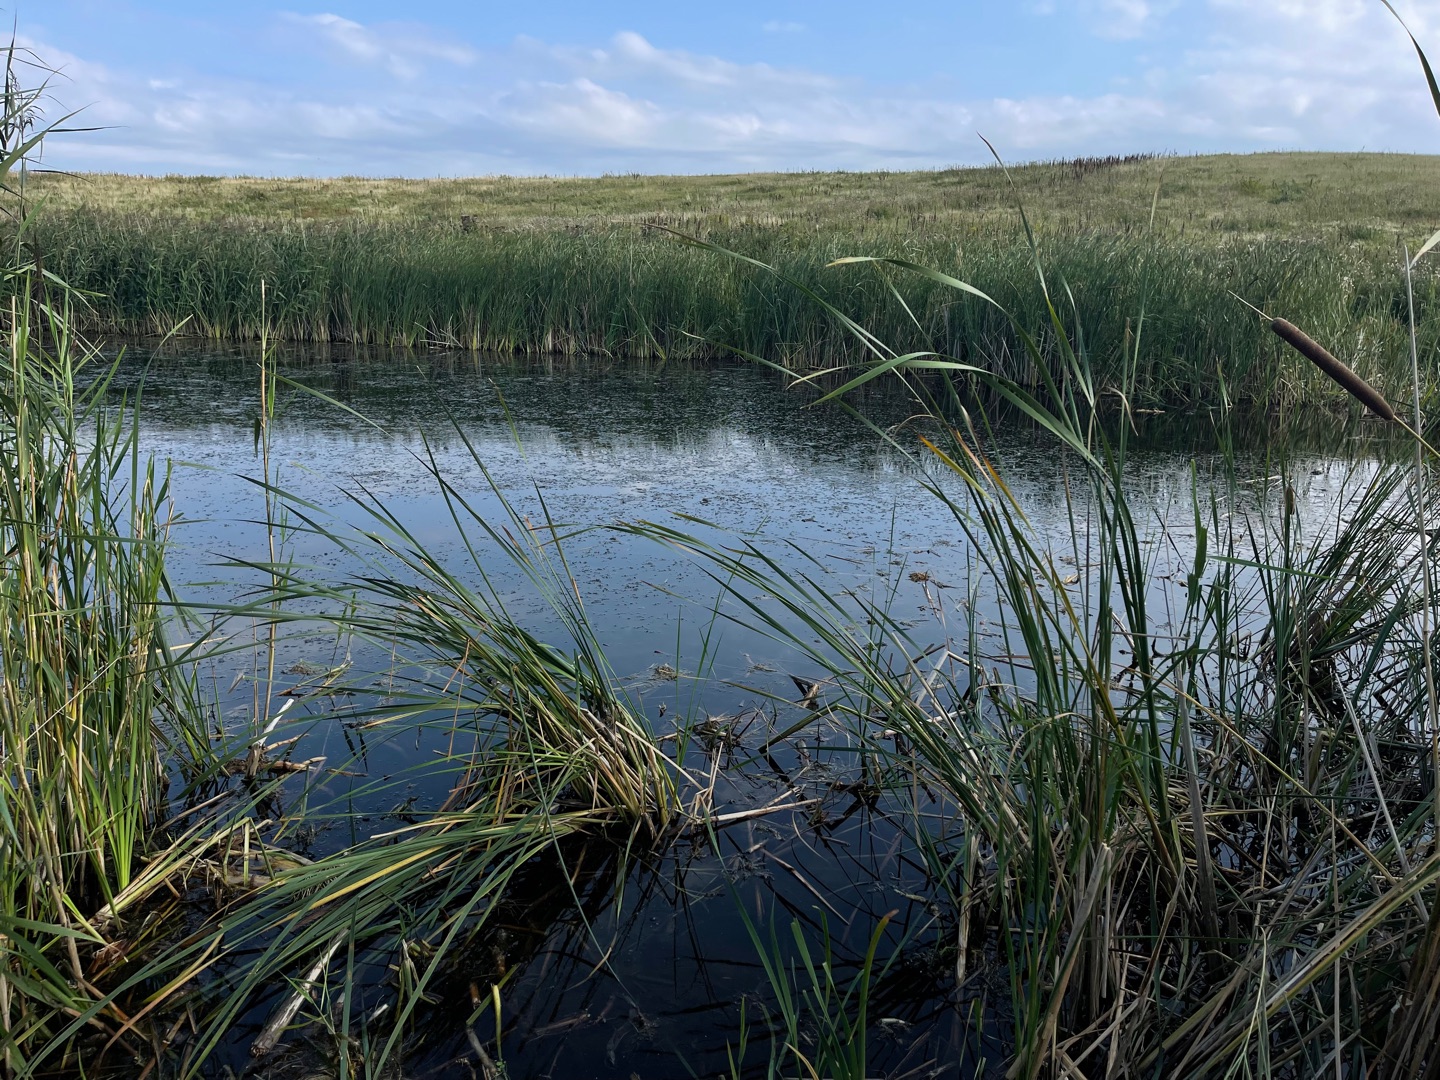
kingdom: Plantae
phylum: Tracheophyta
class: Liliopsida
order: Poales
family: Typhaceae
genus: Typha
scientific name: Typha latifolia
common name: Bredbladet dunhammer
